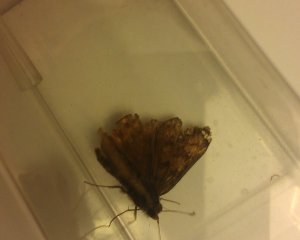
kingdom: Animalia
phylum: Arthropoda
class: Insecta
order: Lepidoptera
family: Hesperiidae
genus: Gesta
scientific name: Gesta
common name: Juvenal's Duskywing
